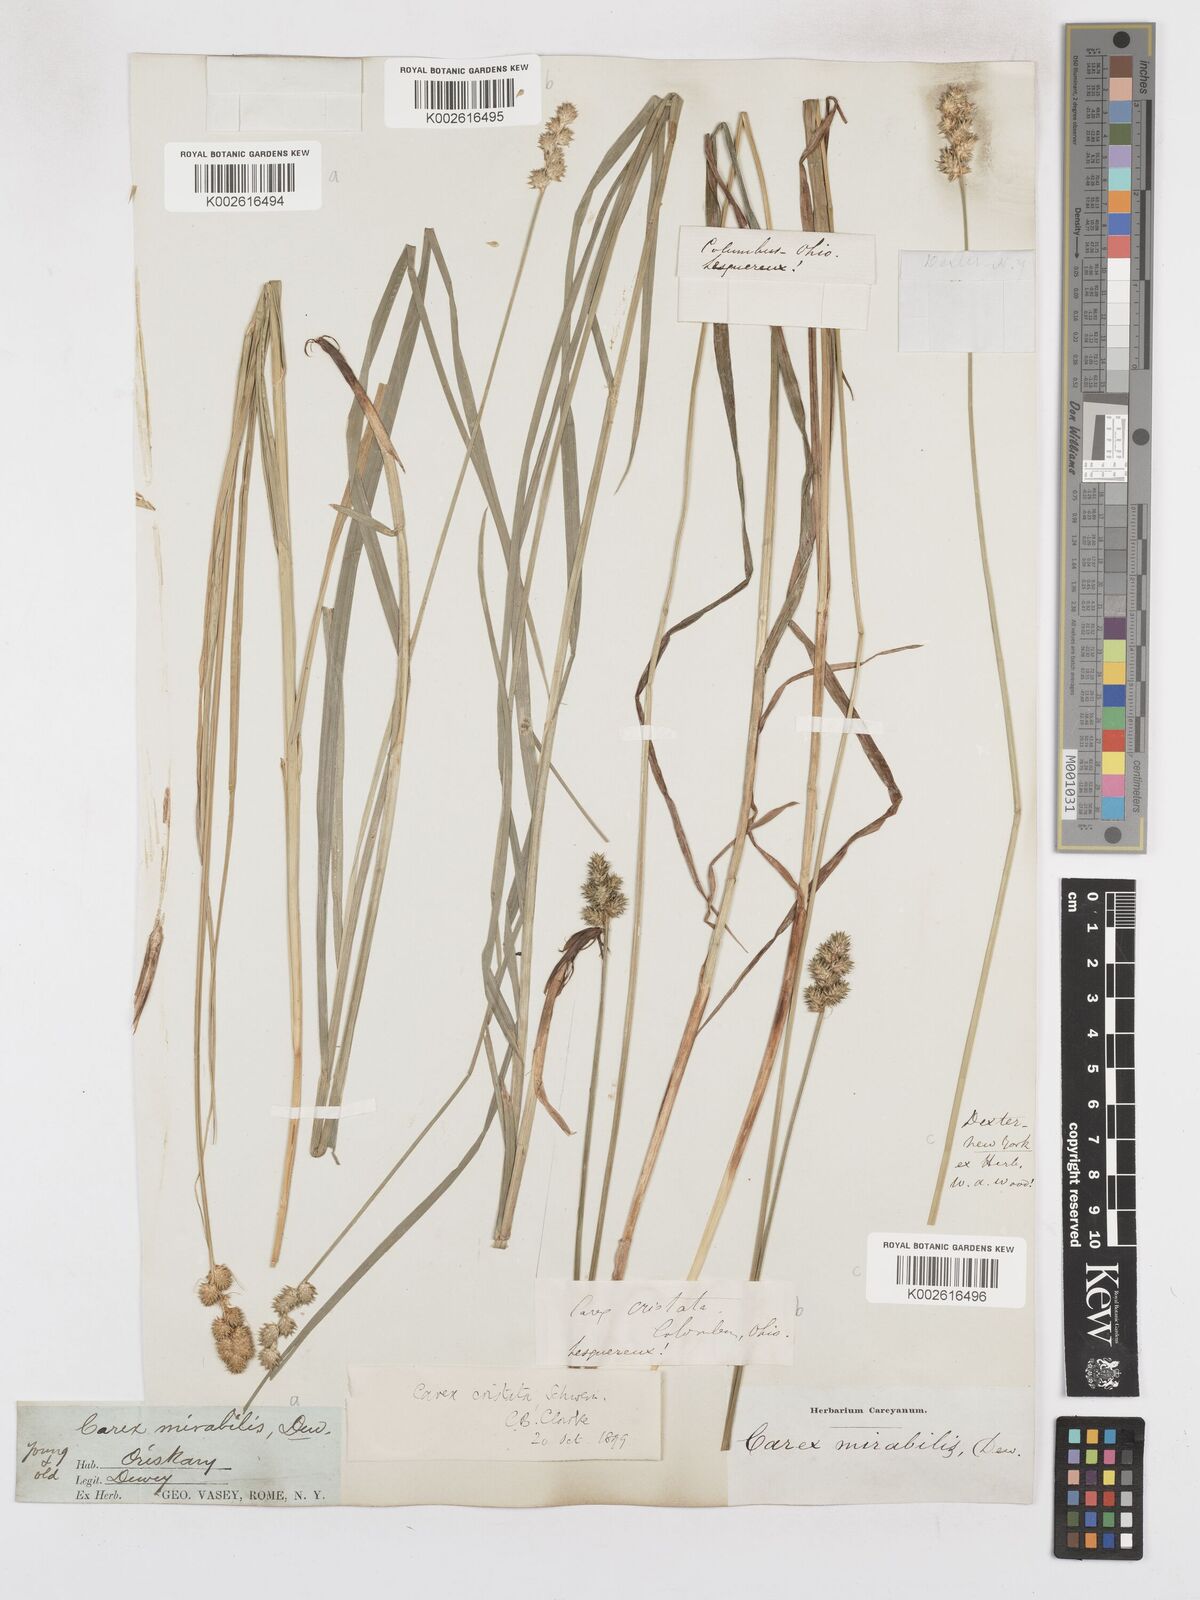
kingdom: Plantae
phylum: Tracheophyta
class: Liliopsida
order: Poales
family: Cyperaceae
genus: Carex
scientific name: Carex cristatella
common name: Crested oval sedge
